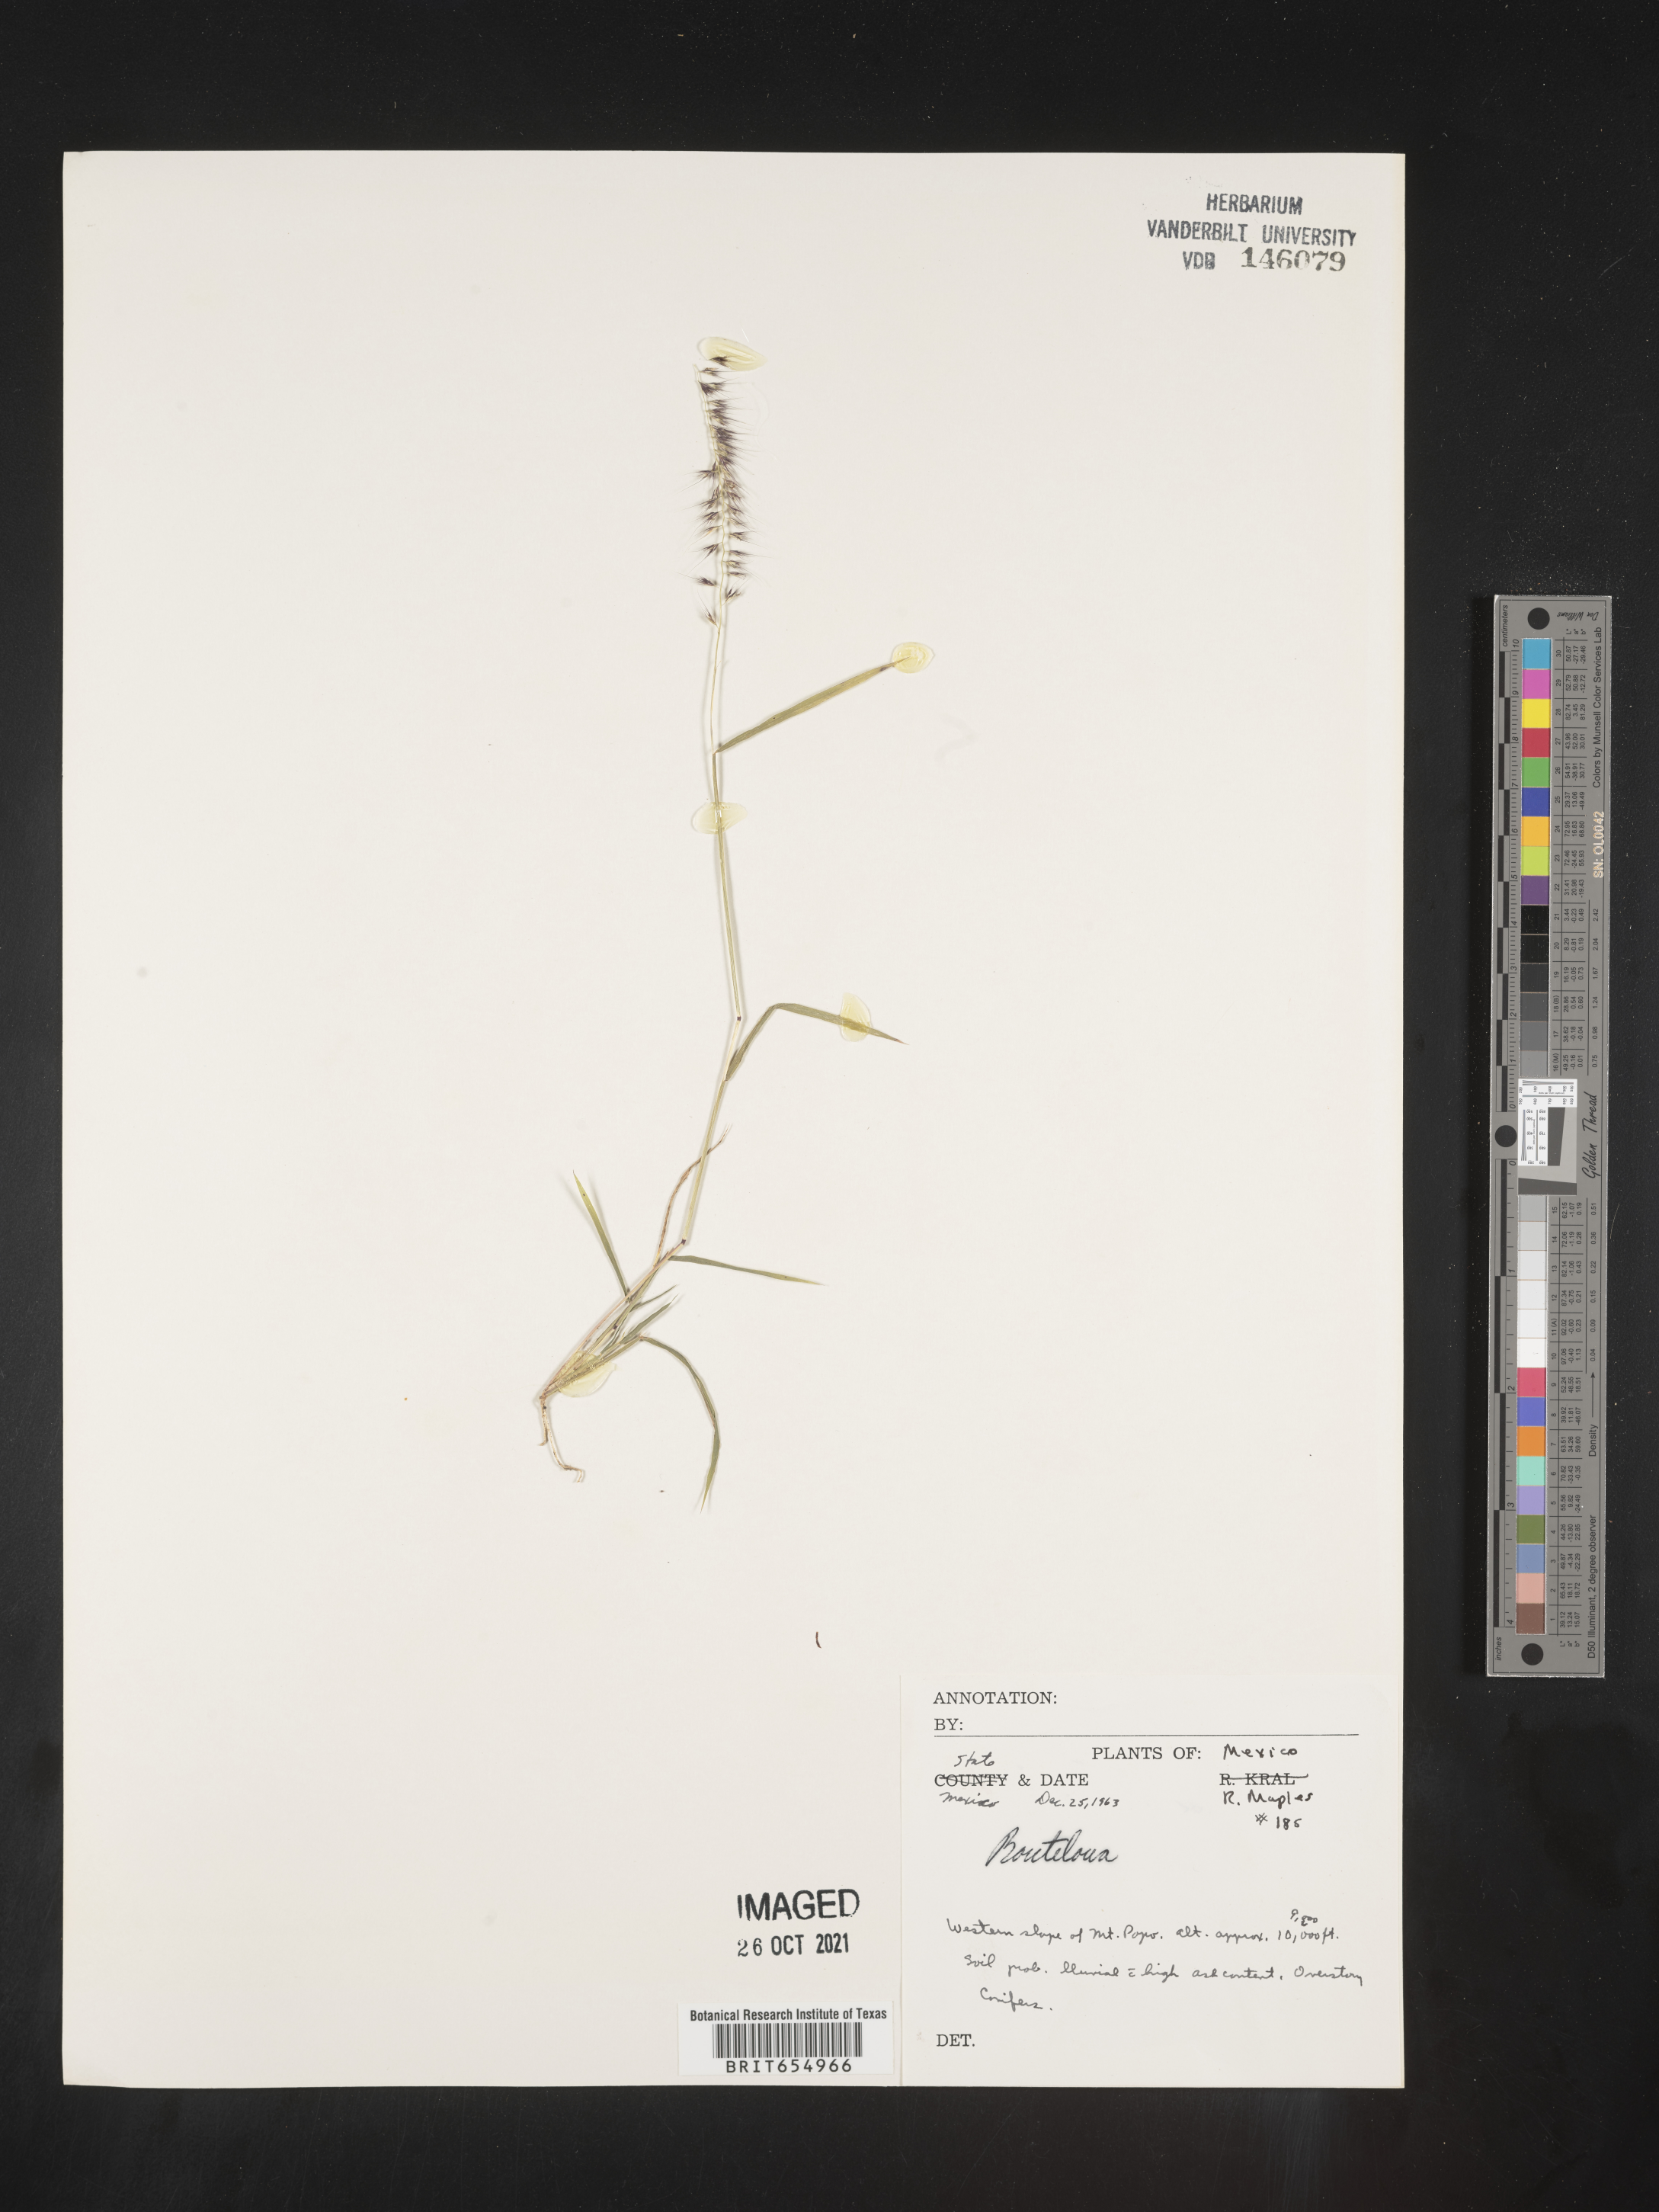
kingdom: Plantae
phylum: Tracheophyta
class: Liliopsida
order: Poales
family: Poaceae
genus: Bouteloua
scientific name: Bouteloua
